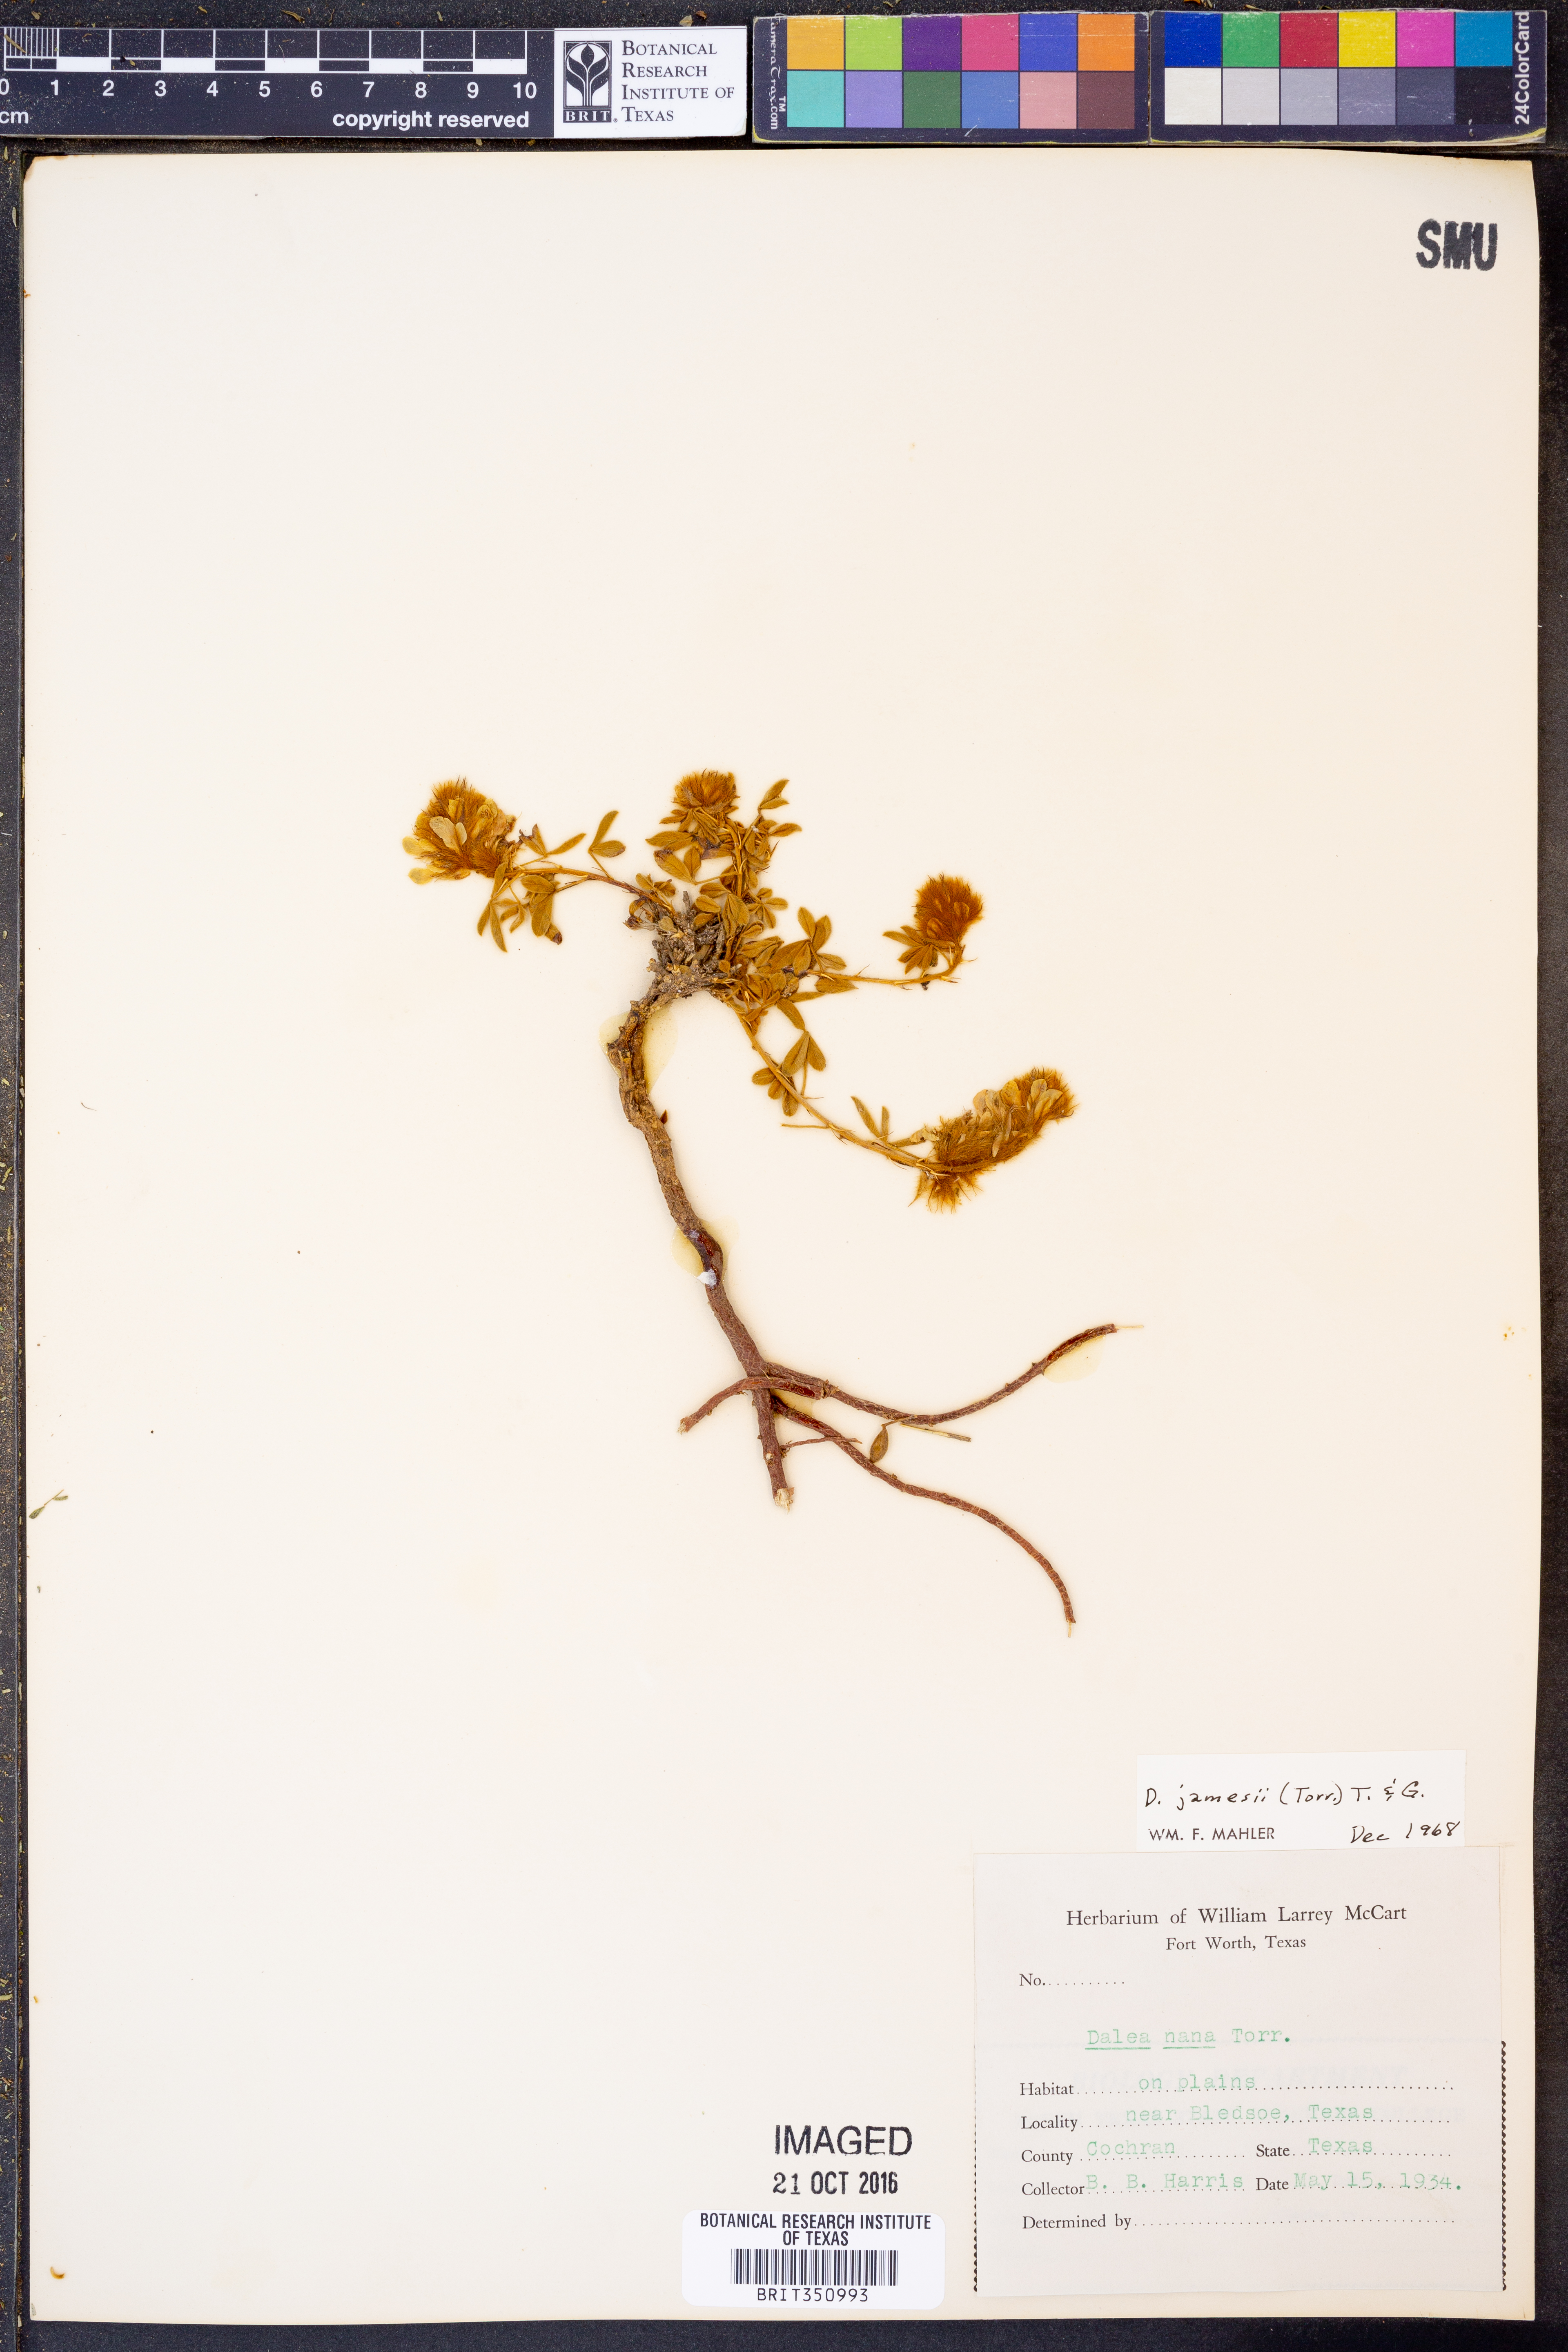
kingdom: Plantae
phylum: Tracheophyta
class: Magnoliopsida
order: Fabales
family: Fabaceae
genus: Dalea
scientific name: Dalea jamesii
